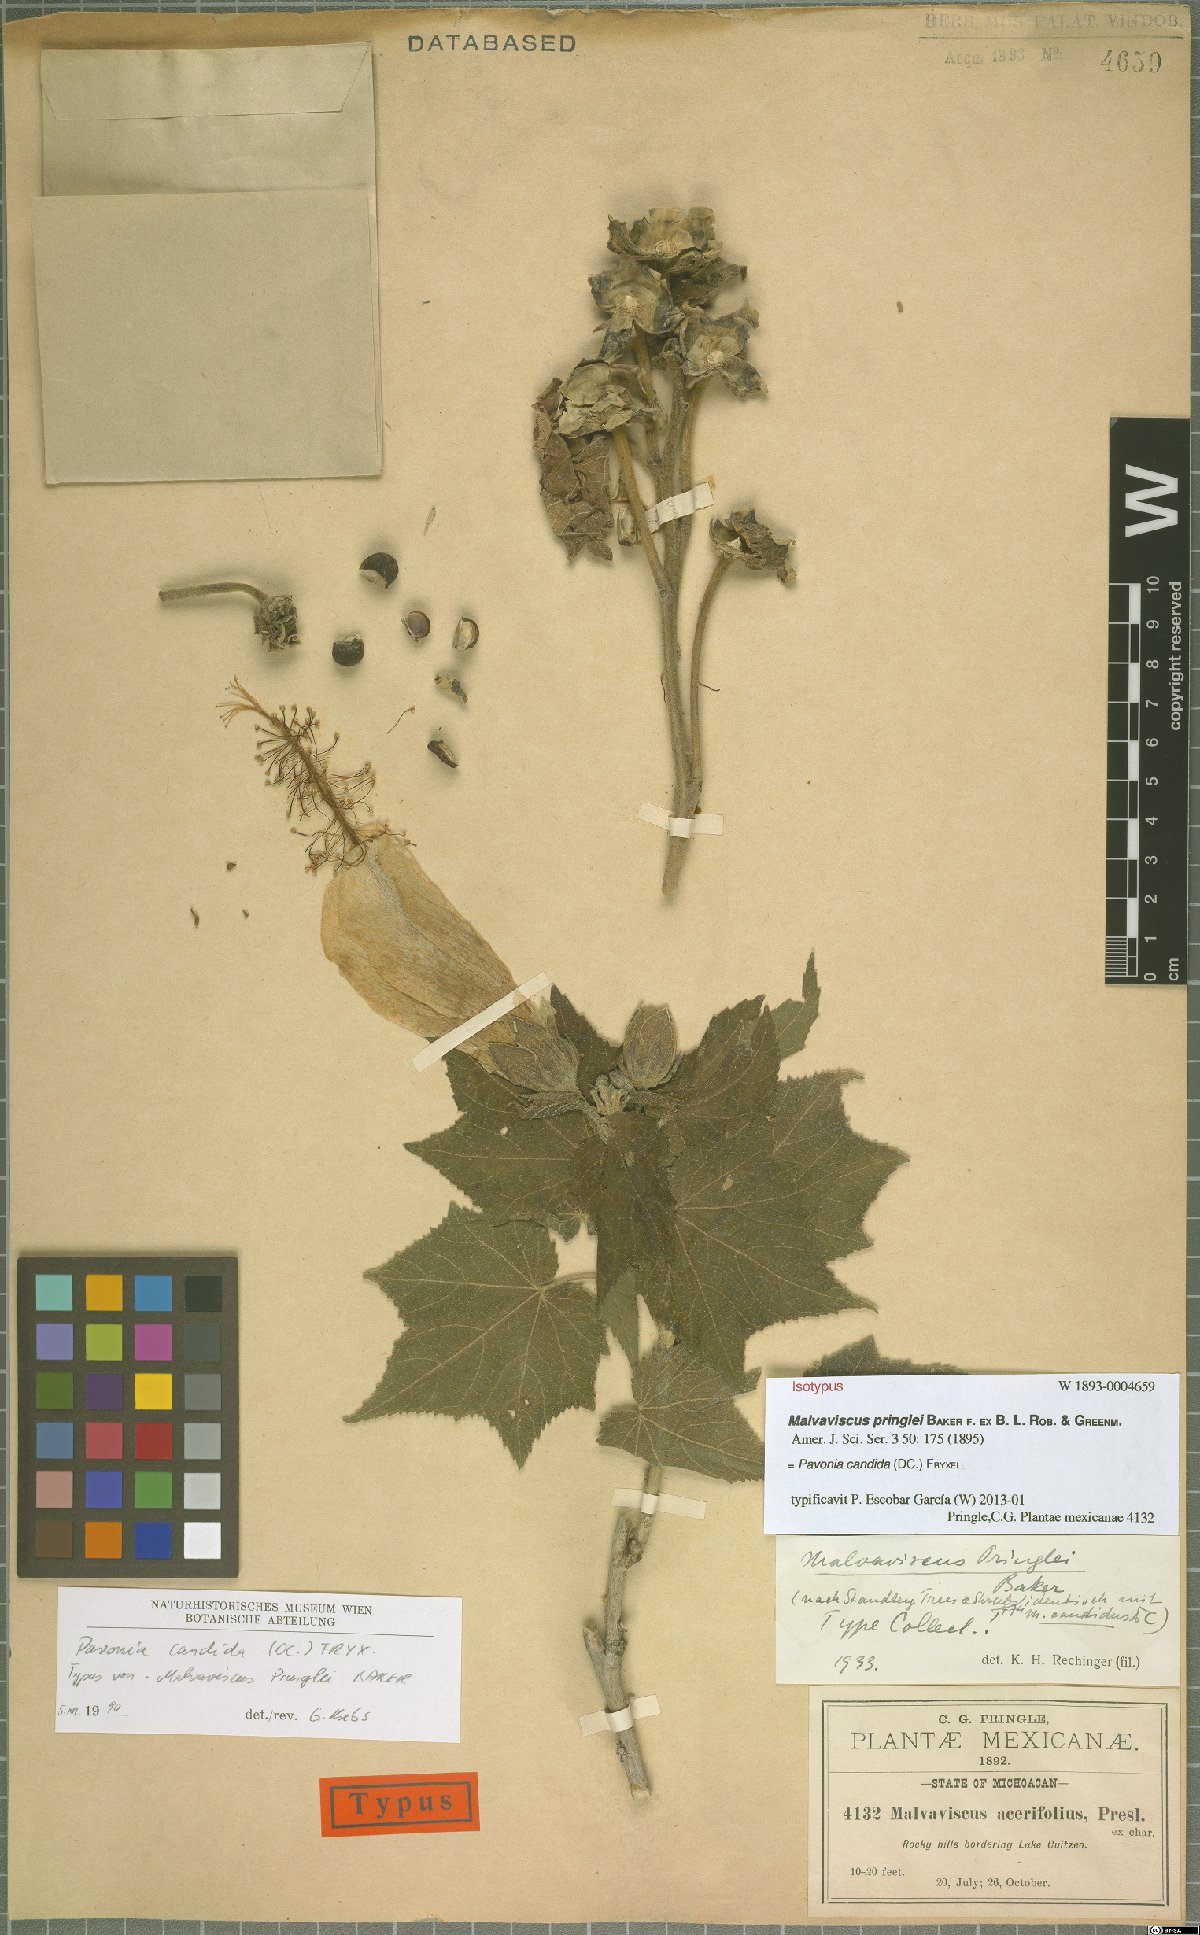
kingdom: Plantae
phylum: Tracheophyta
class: Magnoliopsida
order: Malvales
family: Malvaceae
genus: Pavonia
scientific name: Pavonia candida
